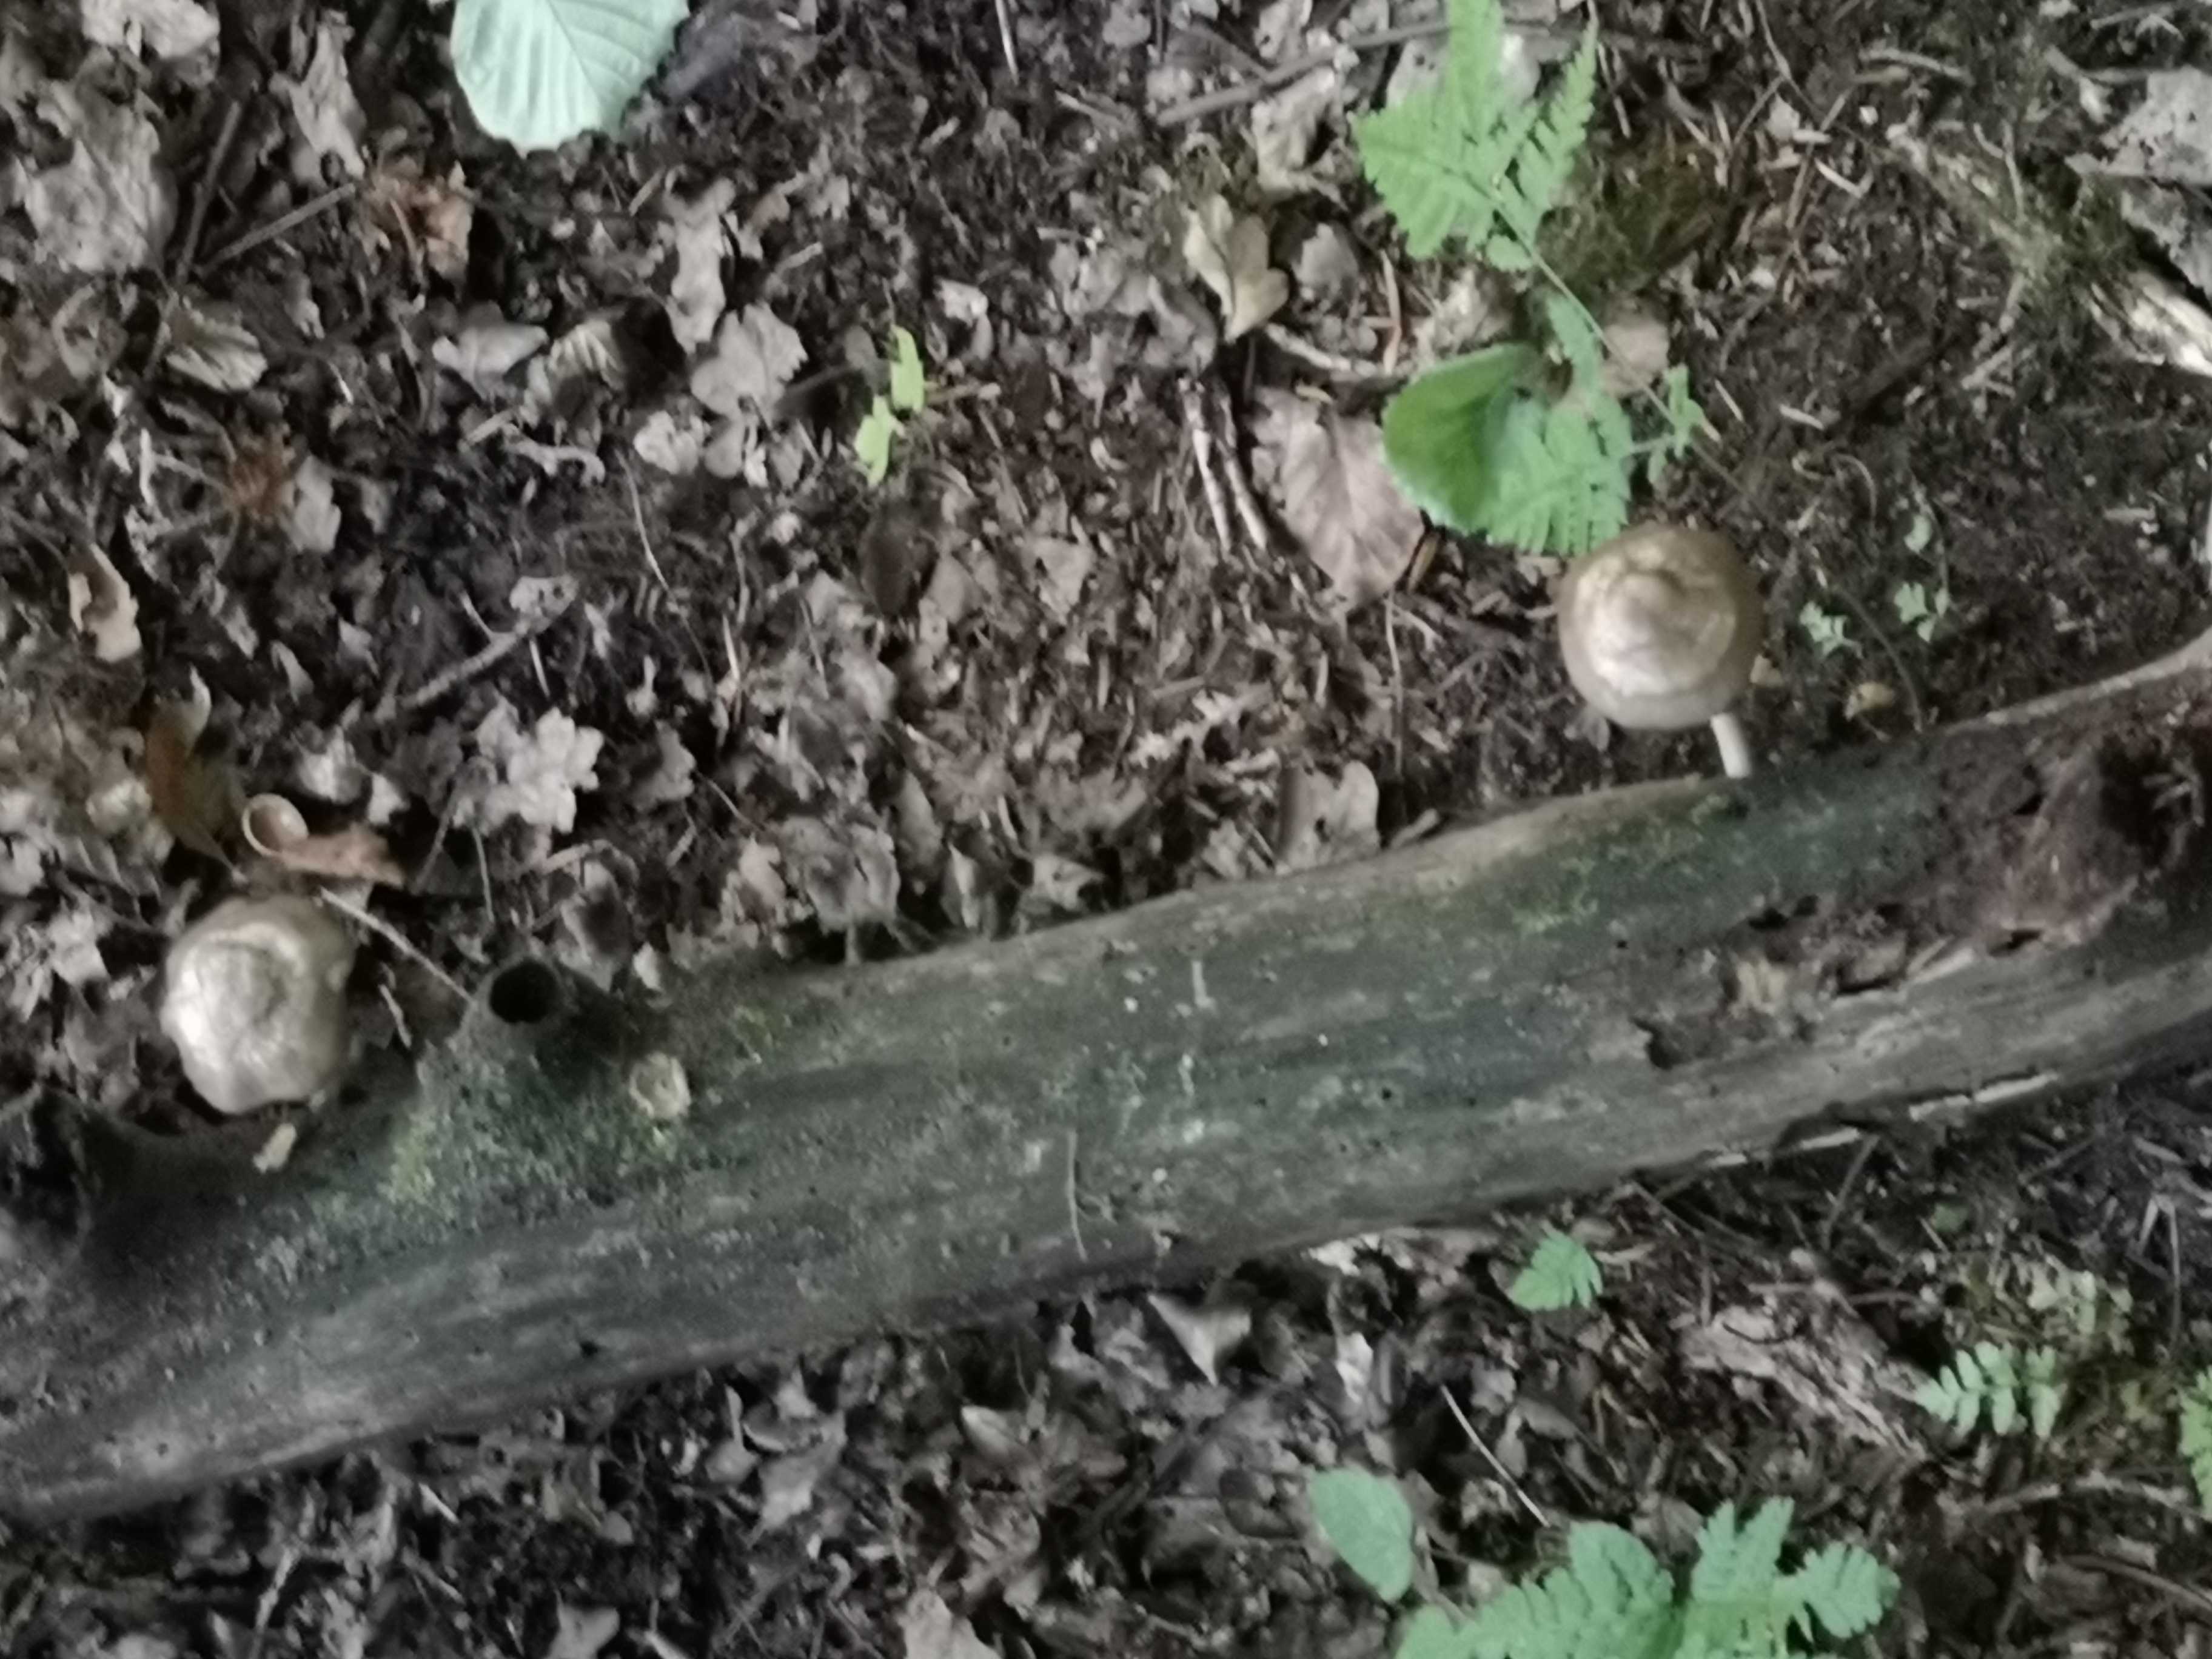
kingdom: Fungi
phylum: Basidiomycota
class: Agaricomycetes
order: Agaricales
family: Pluteaceae
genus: Pluteus
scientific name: Pluteus
